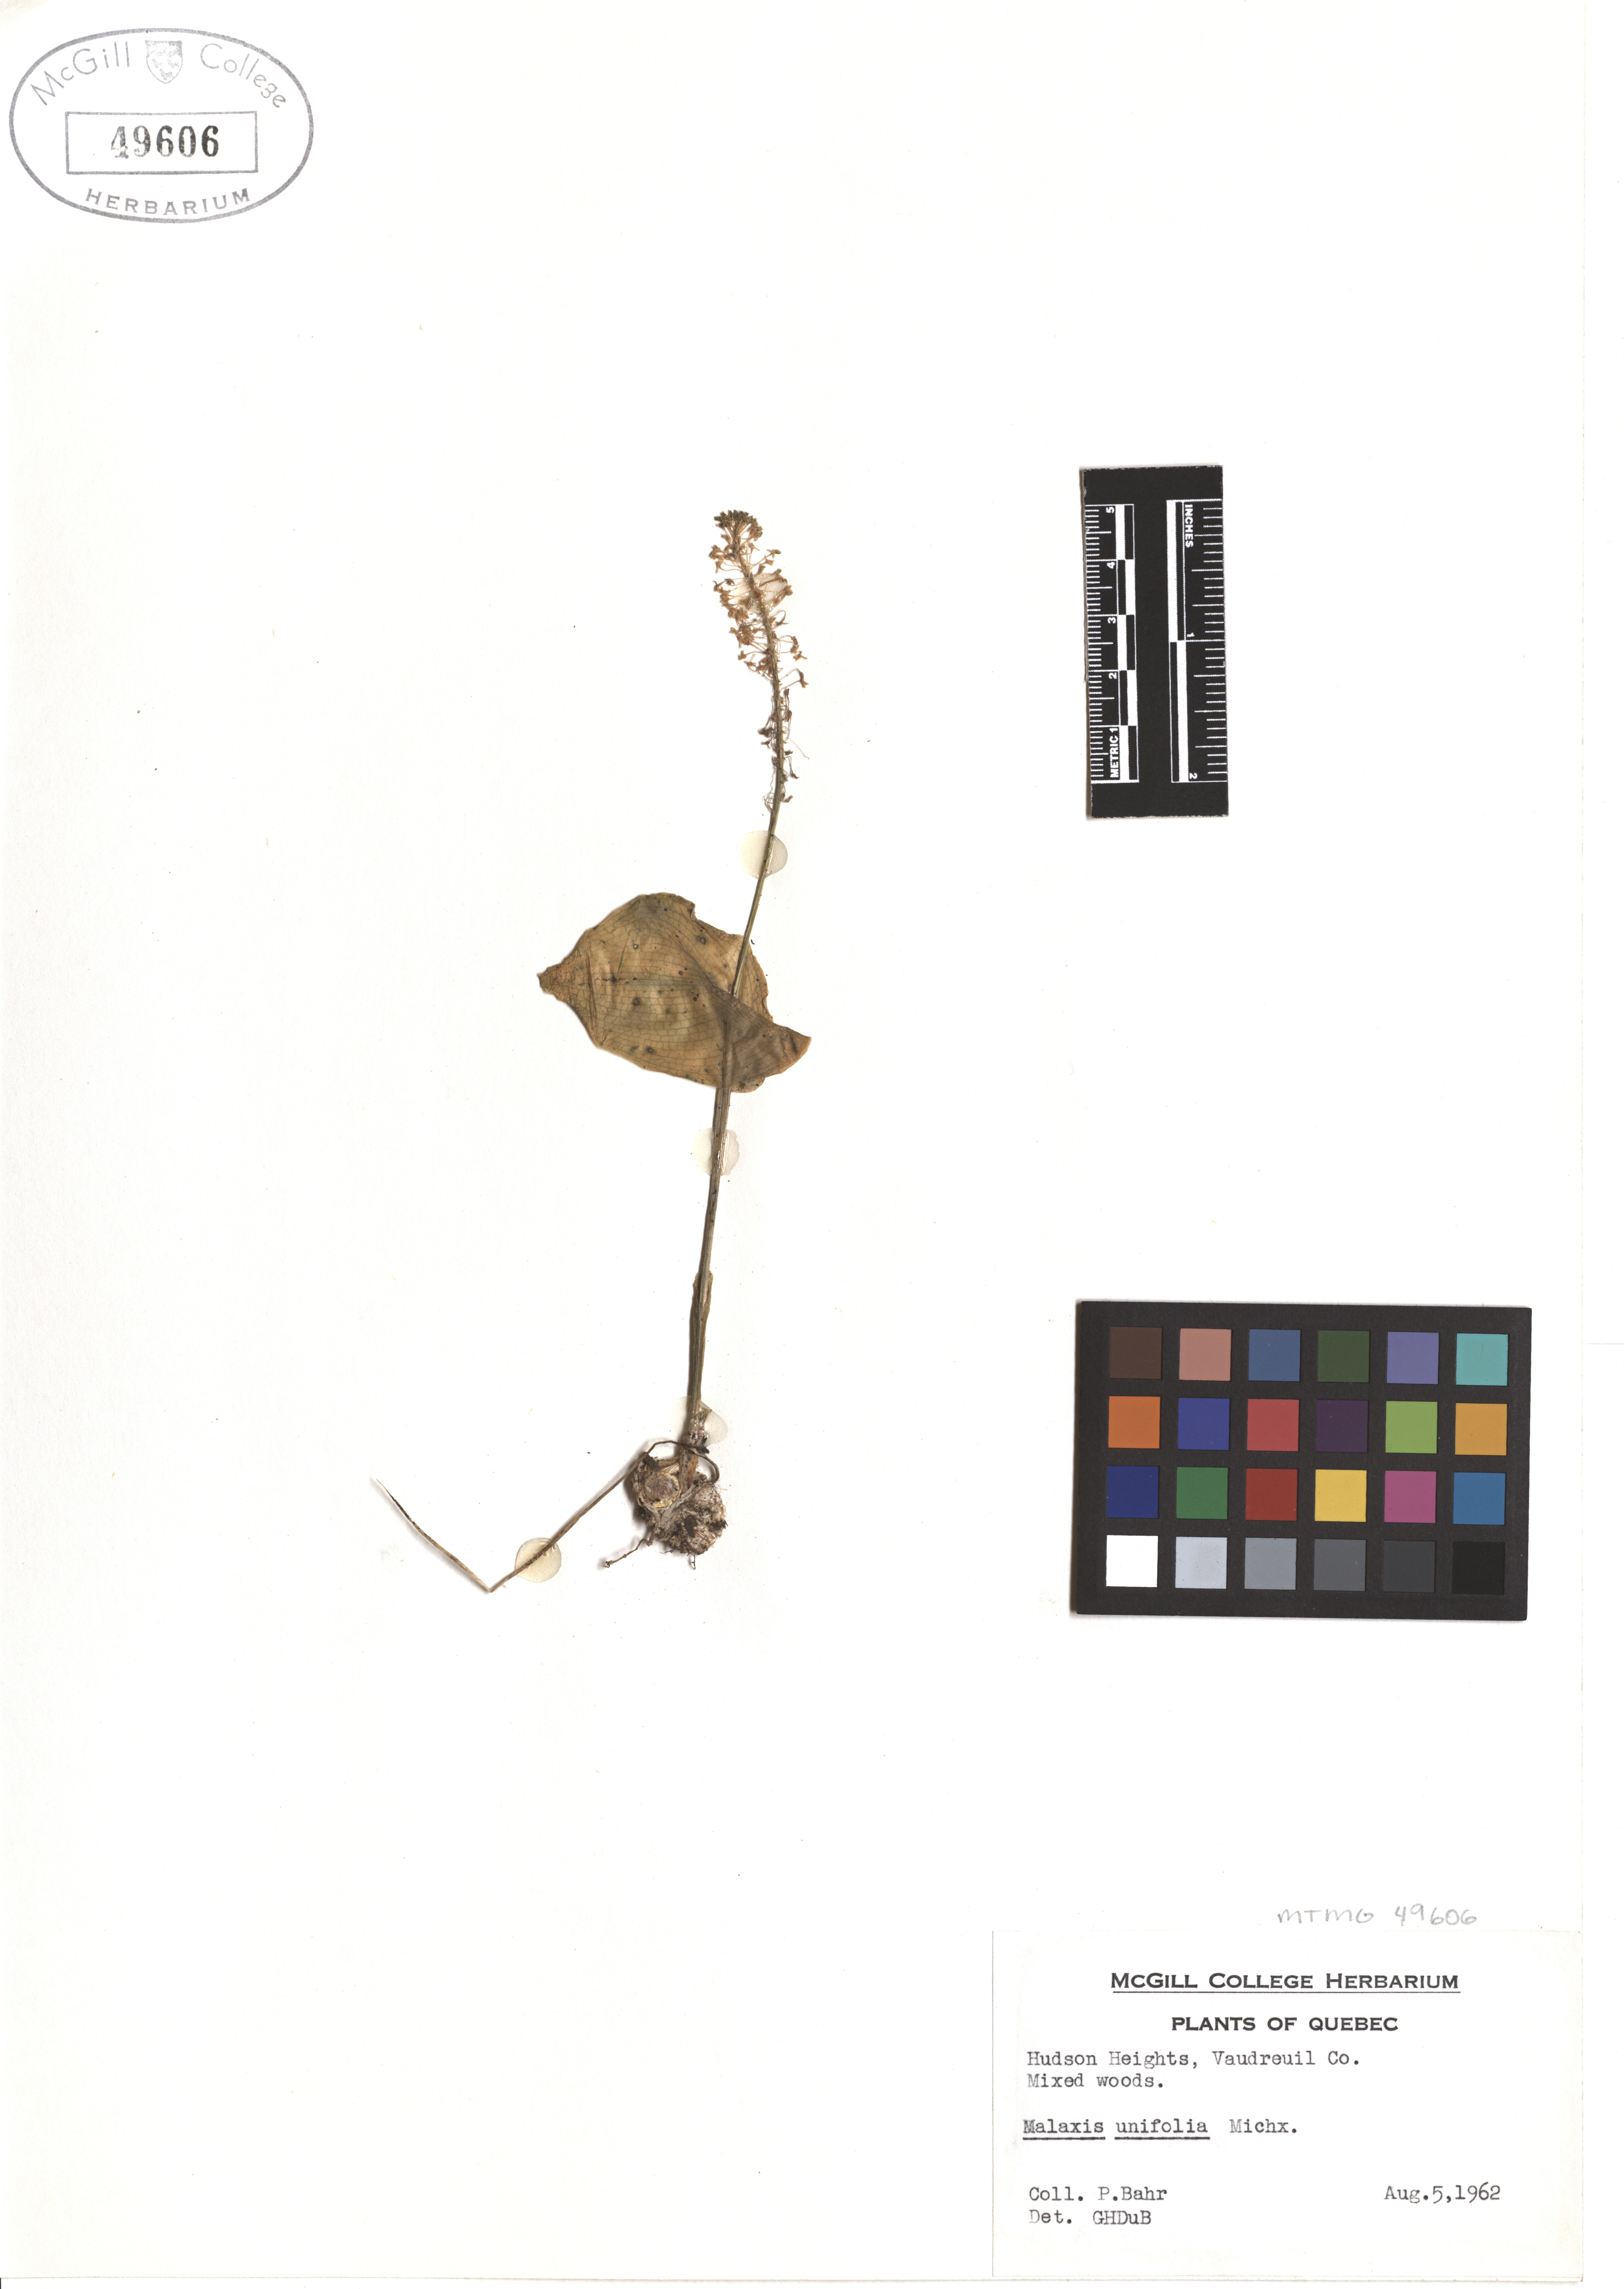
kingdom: Plantae
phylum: Tracheophyta
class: Liliopsida
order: Asparagales
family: Orchidaceae
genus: Malaxis
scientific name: Malaxis unifolia
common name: Green adder's-mouth
